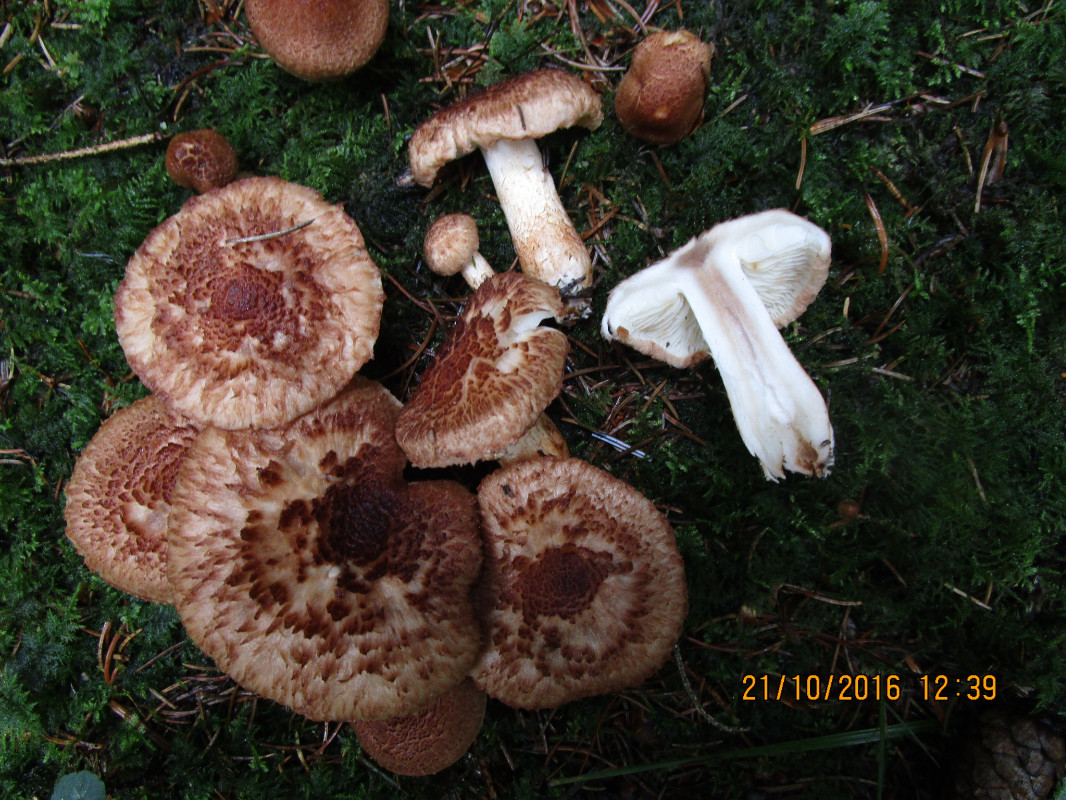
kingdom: Fungi
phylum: Basidiomycota
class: Agaricomycetes
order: Agaricales
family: Tricholomataceae
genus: Tricholoma
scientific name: Tricholoma vaccinum
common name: ko-ridderhat
